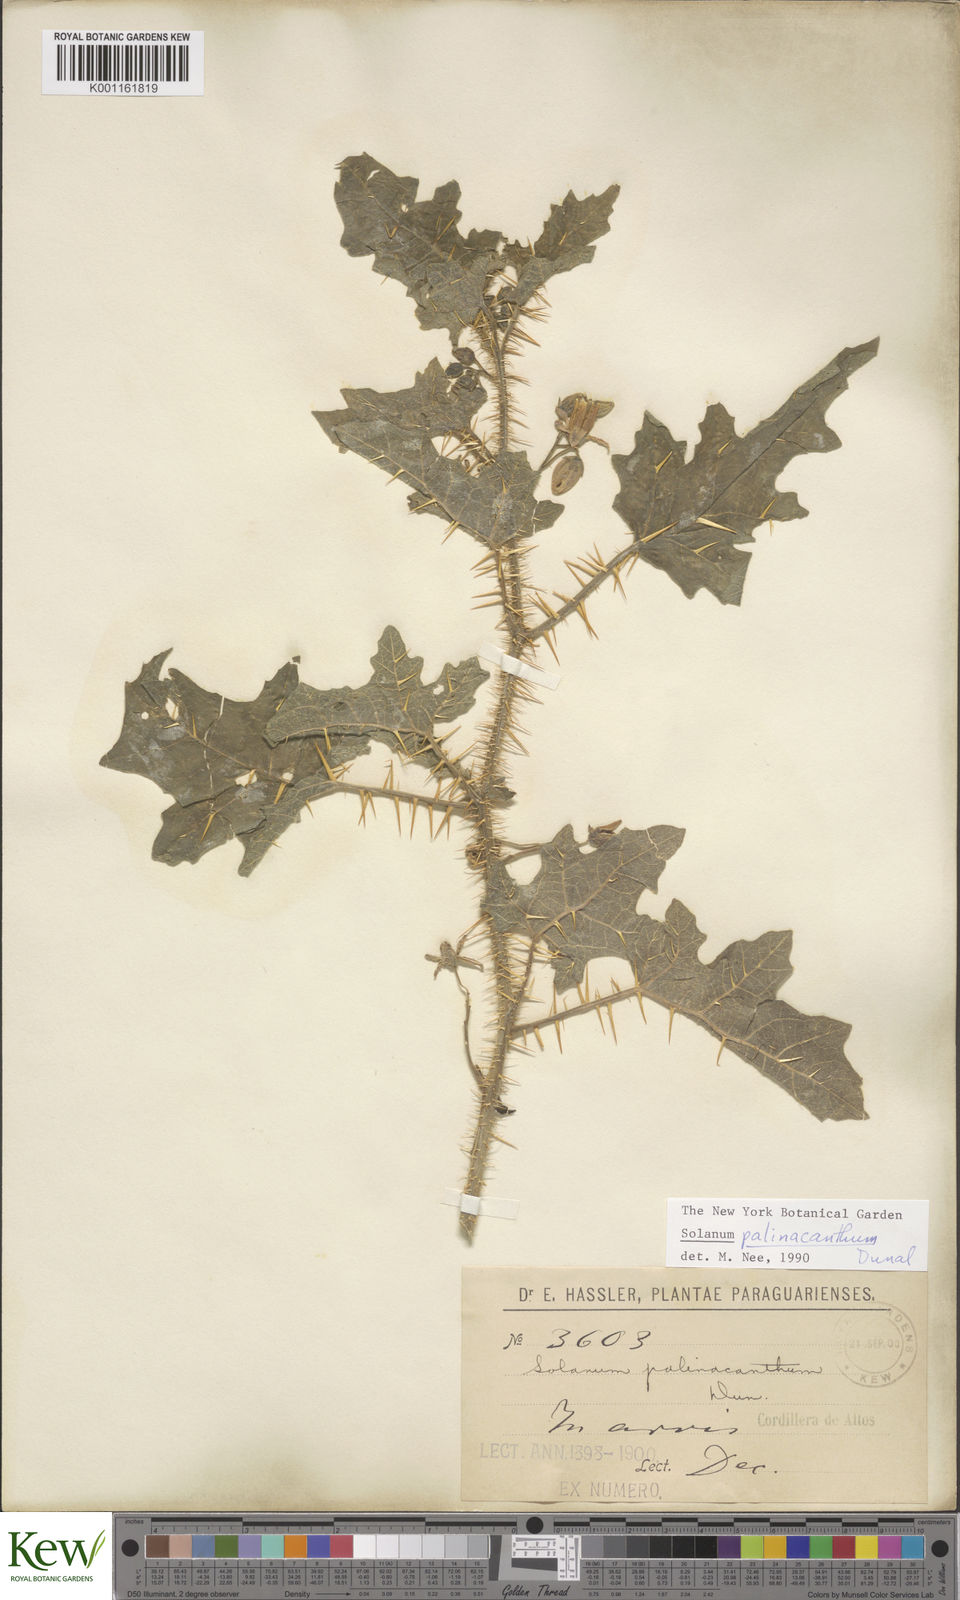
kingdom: Plantae
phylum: Tracheophyta
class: Magnoliopsida
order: Solanales
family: Solanaceae
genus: Solanum
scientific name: Solanum palinacanthum
